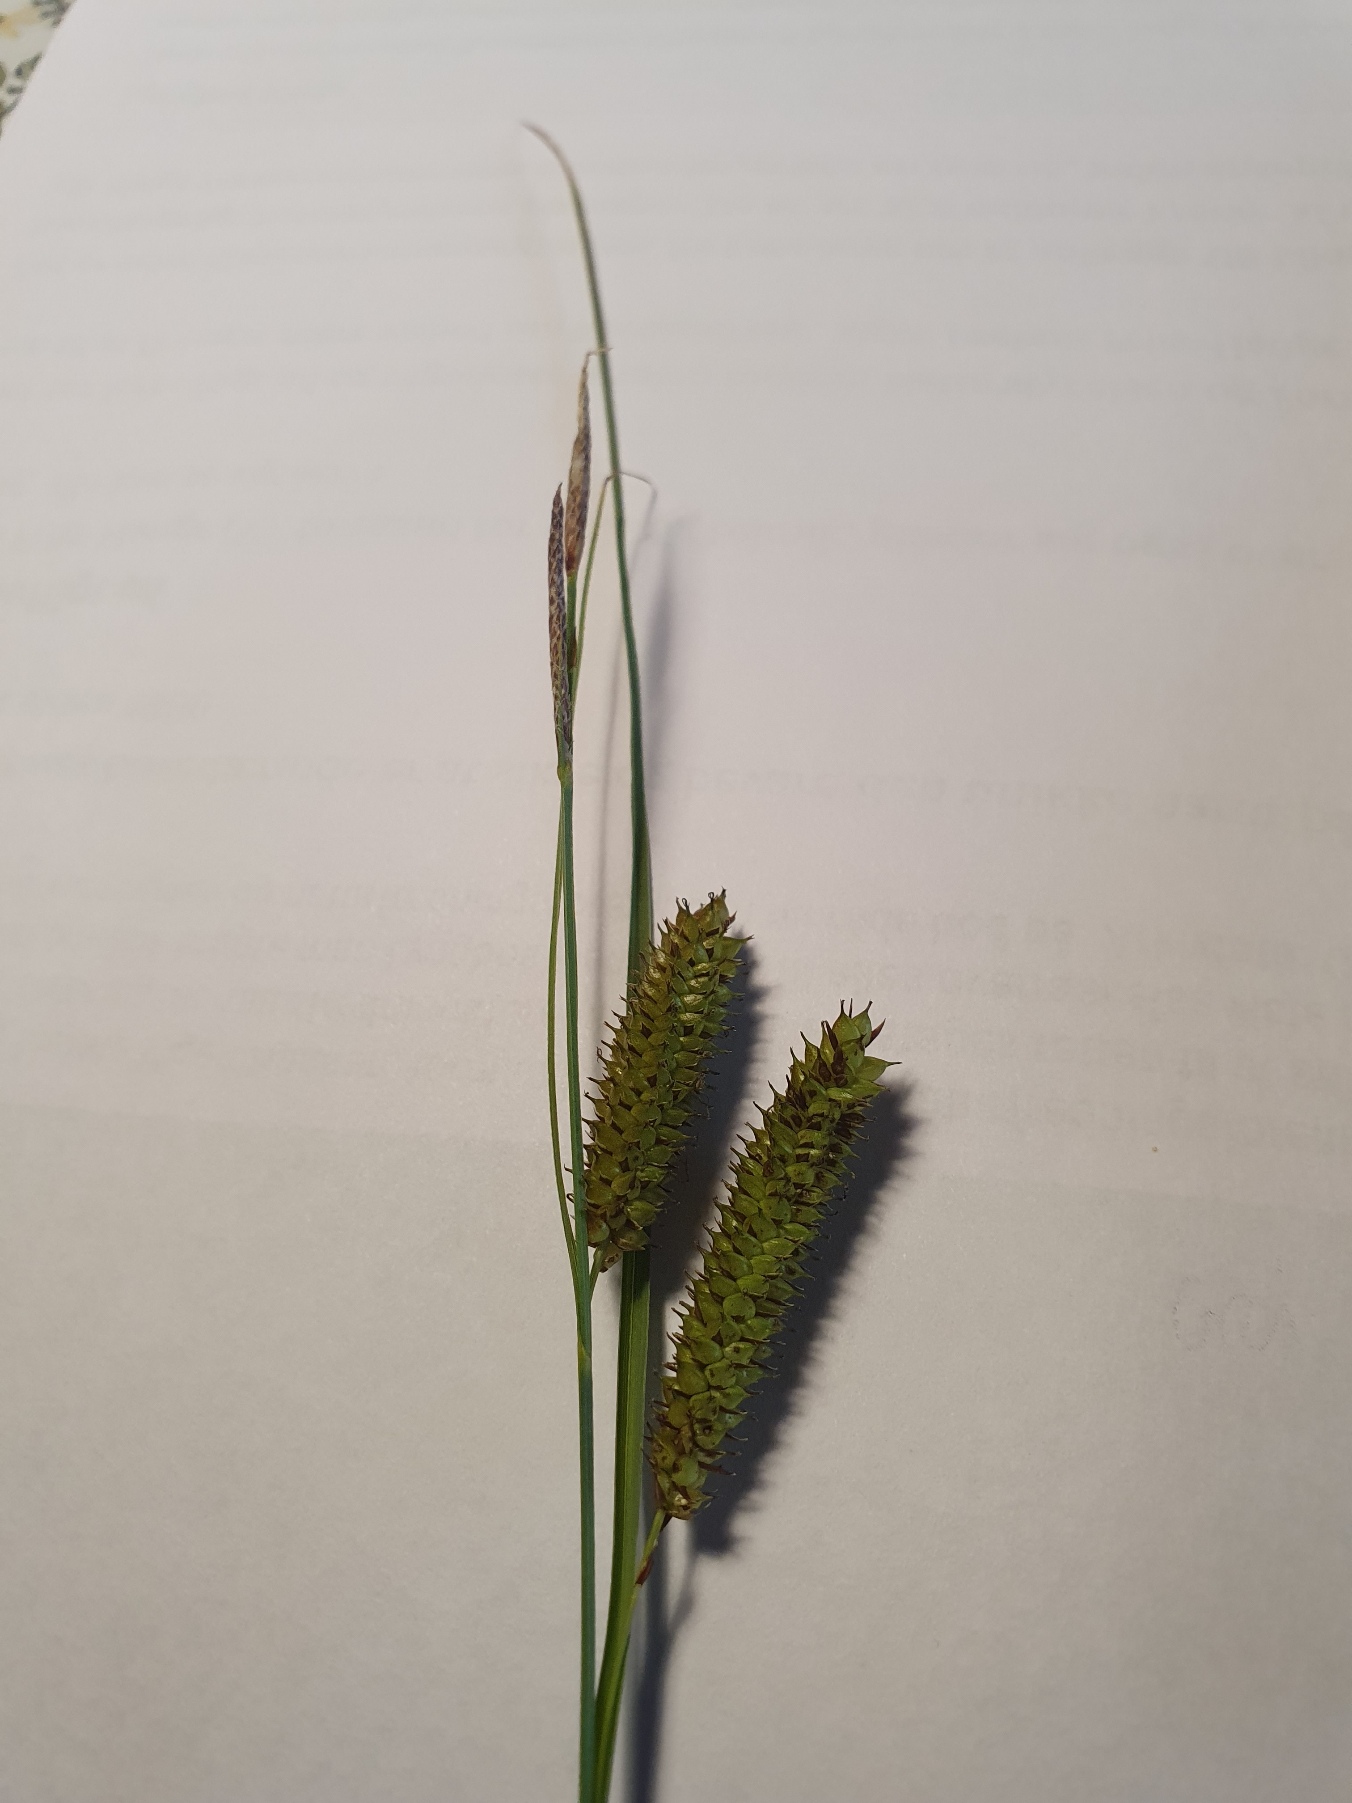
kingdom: Plantae
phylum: Tracheophyta
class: Liliopsida
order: Poales
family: Cyperaceae
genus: Carex
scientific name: Carex rostrata
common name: Næb-star
